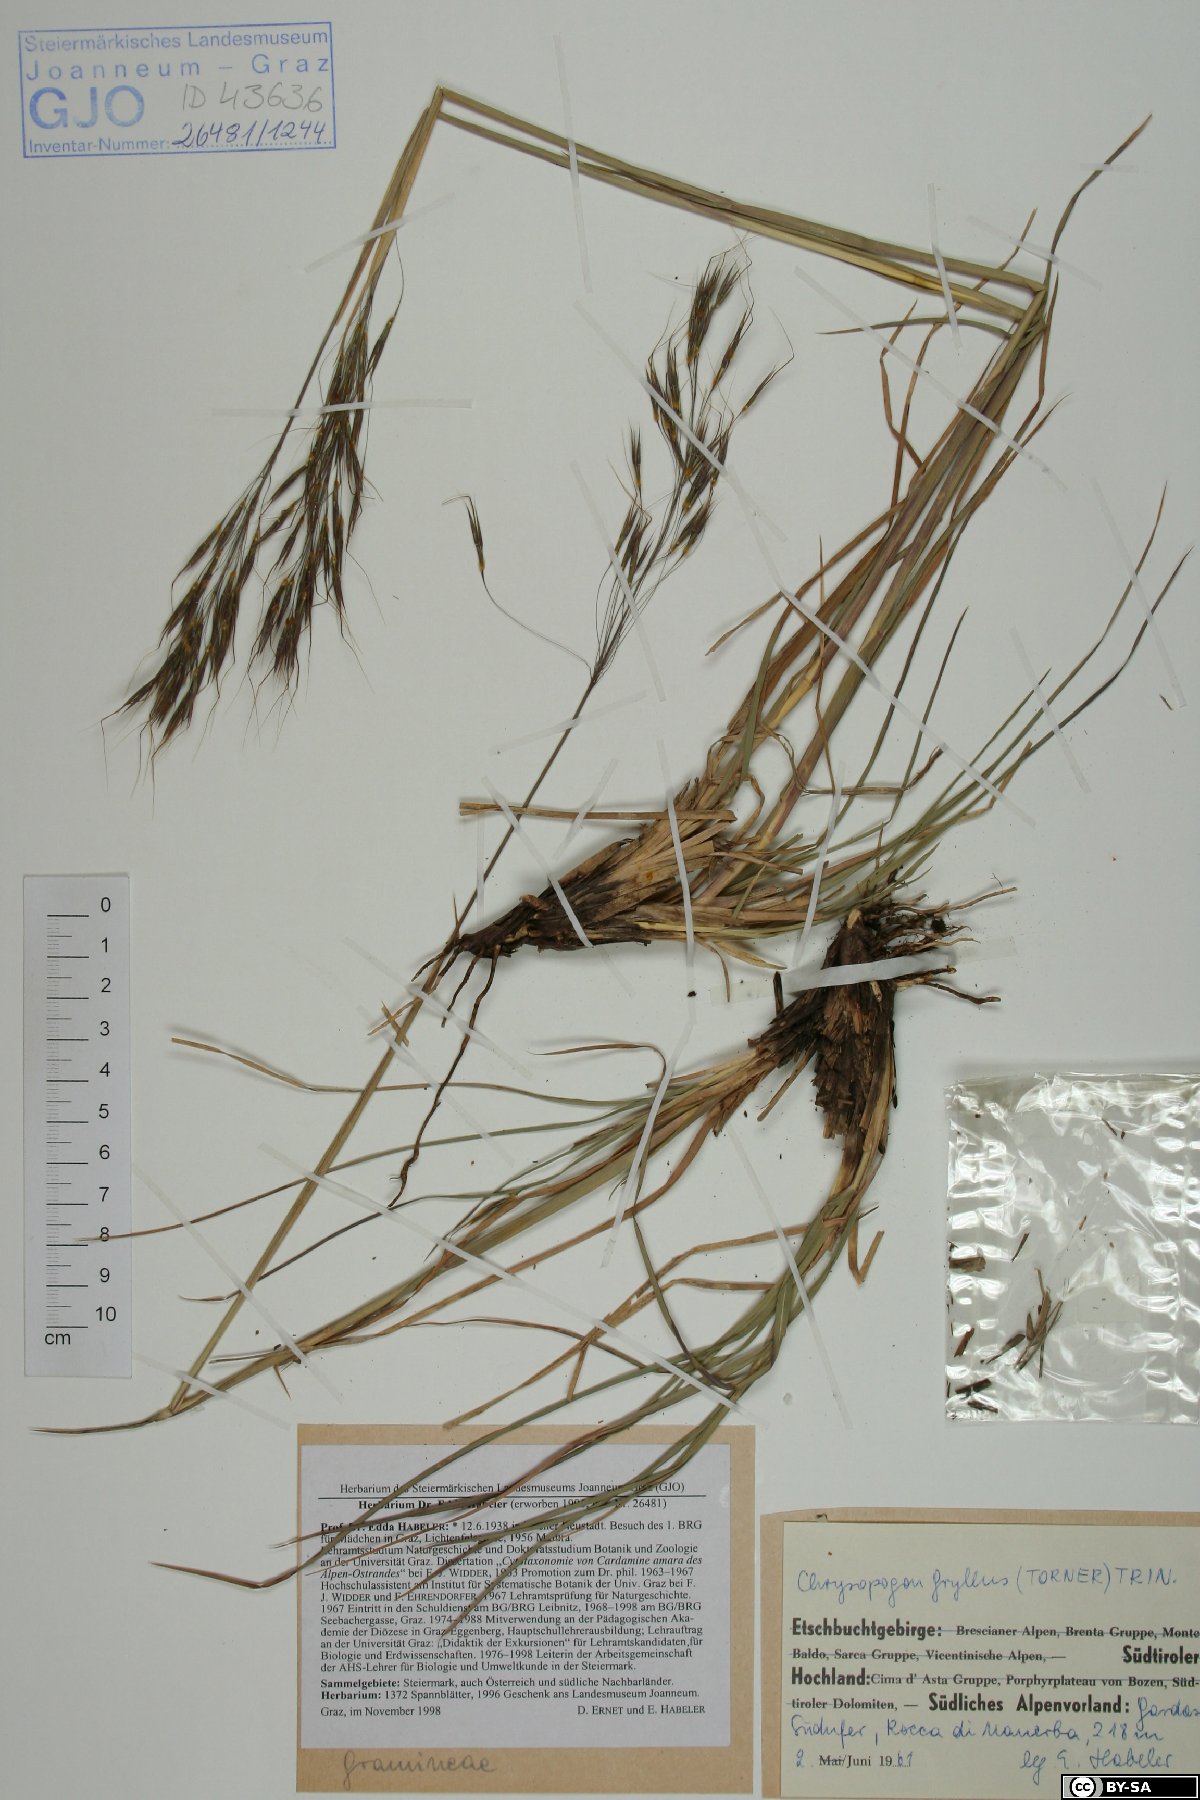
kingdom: Plantae
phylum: Tracheophyta
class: Liliopsida
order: Poales
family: Poaceae
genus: Chrysopogon
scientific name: Chrysopogon gryllus
